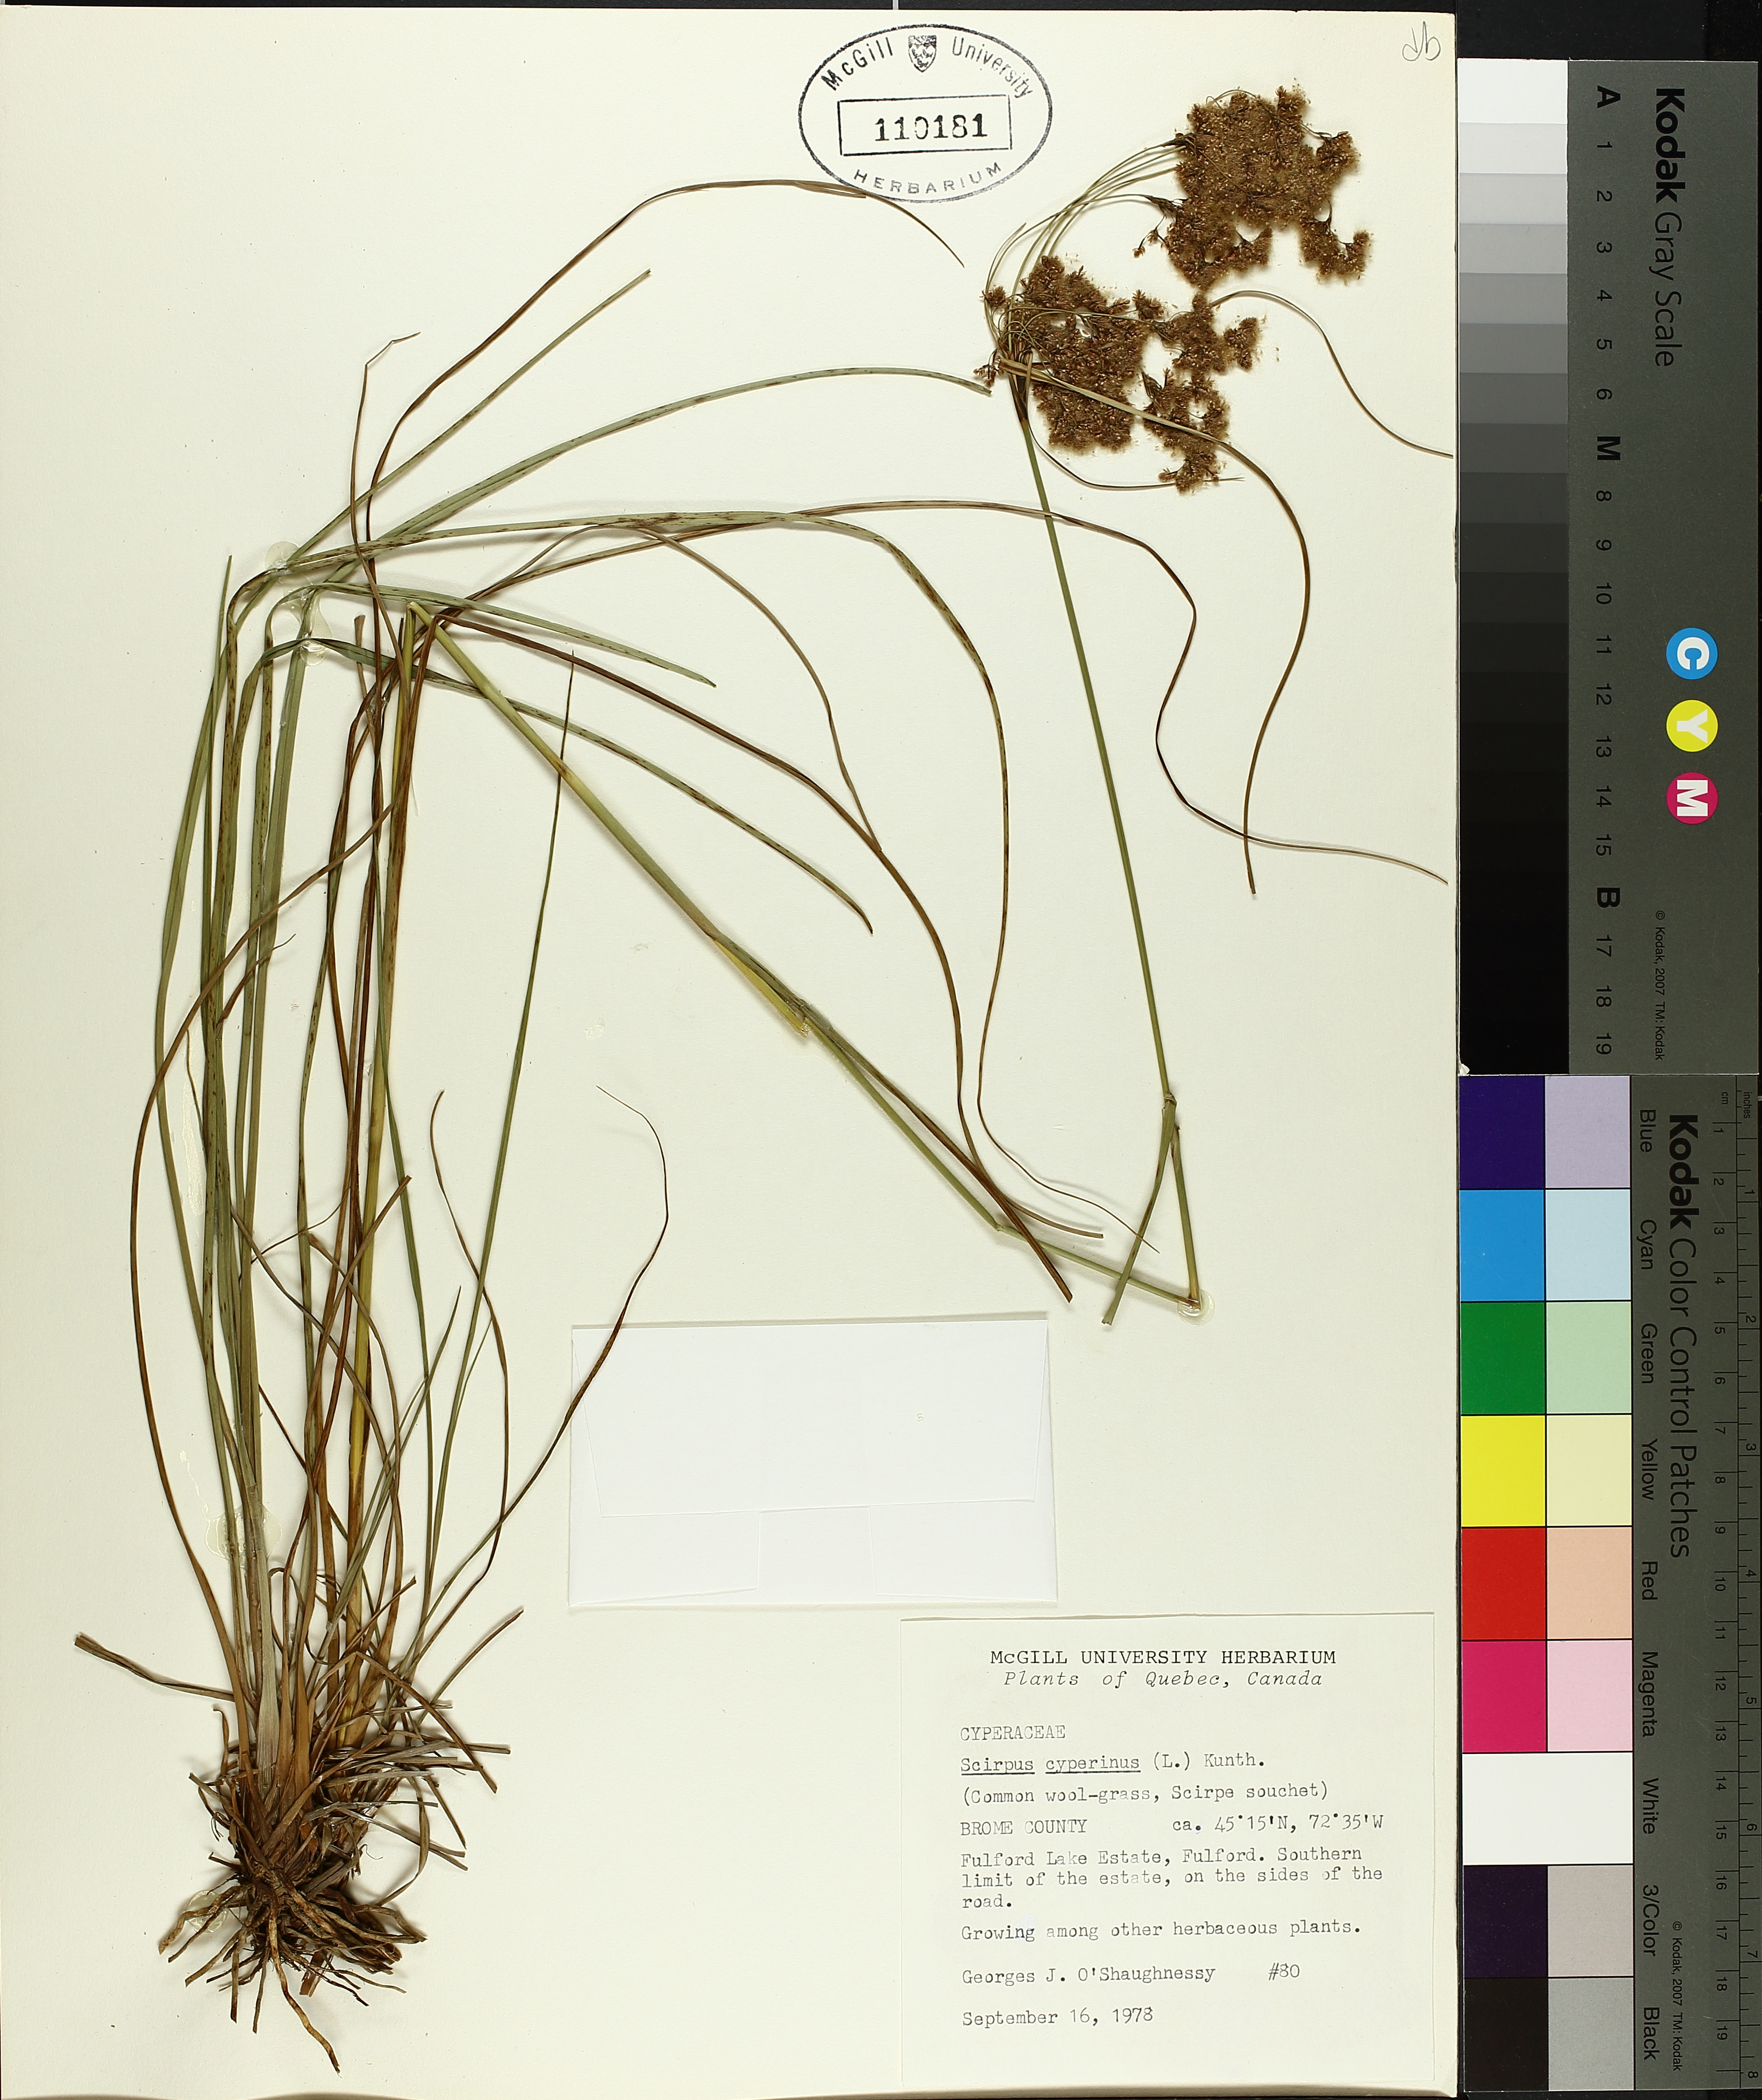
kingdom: Plantae
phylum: Tracheophyta
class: Liliopsida
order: Poales
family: Cyperaceae
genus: Scirpus
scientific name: Scirpus cyperinus
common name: Black-sheathed bulrush
